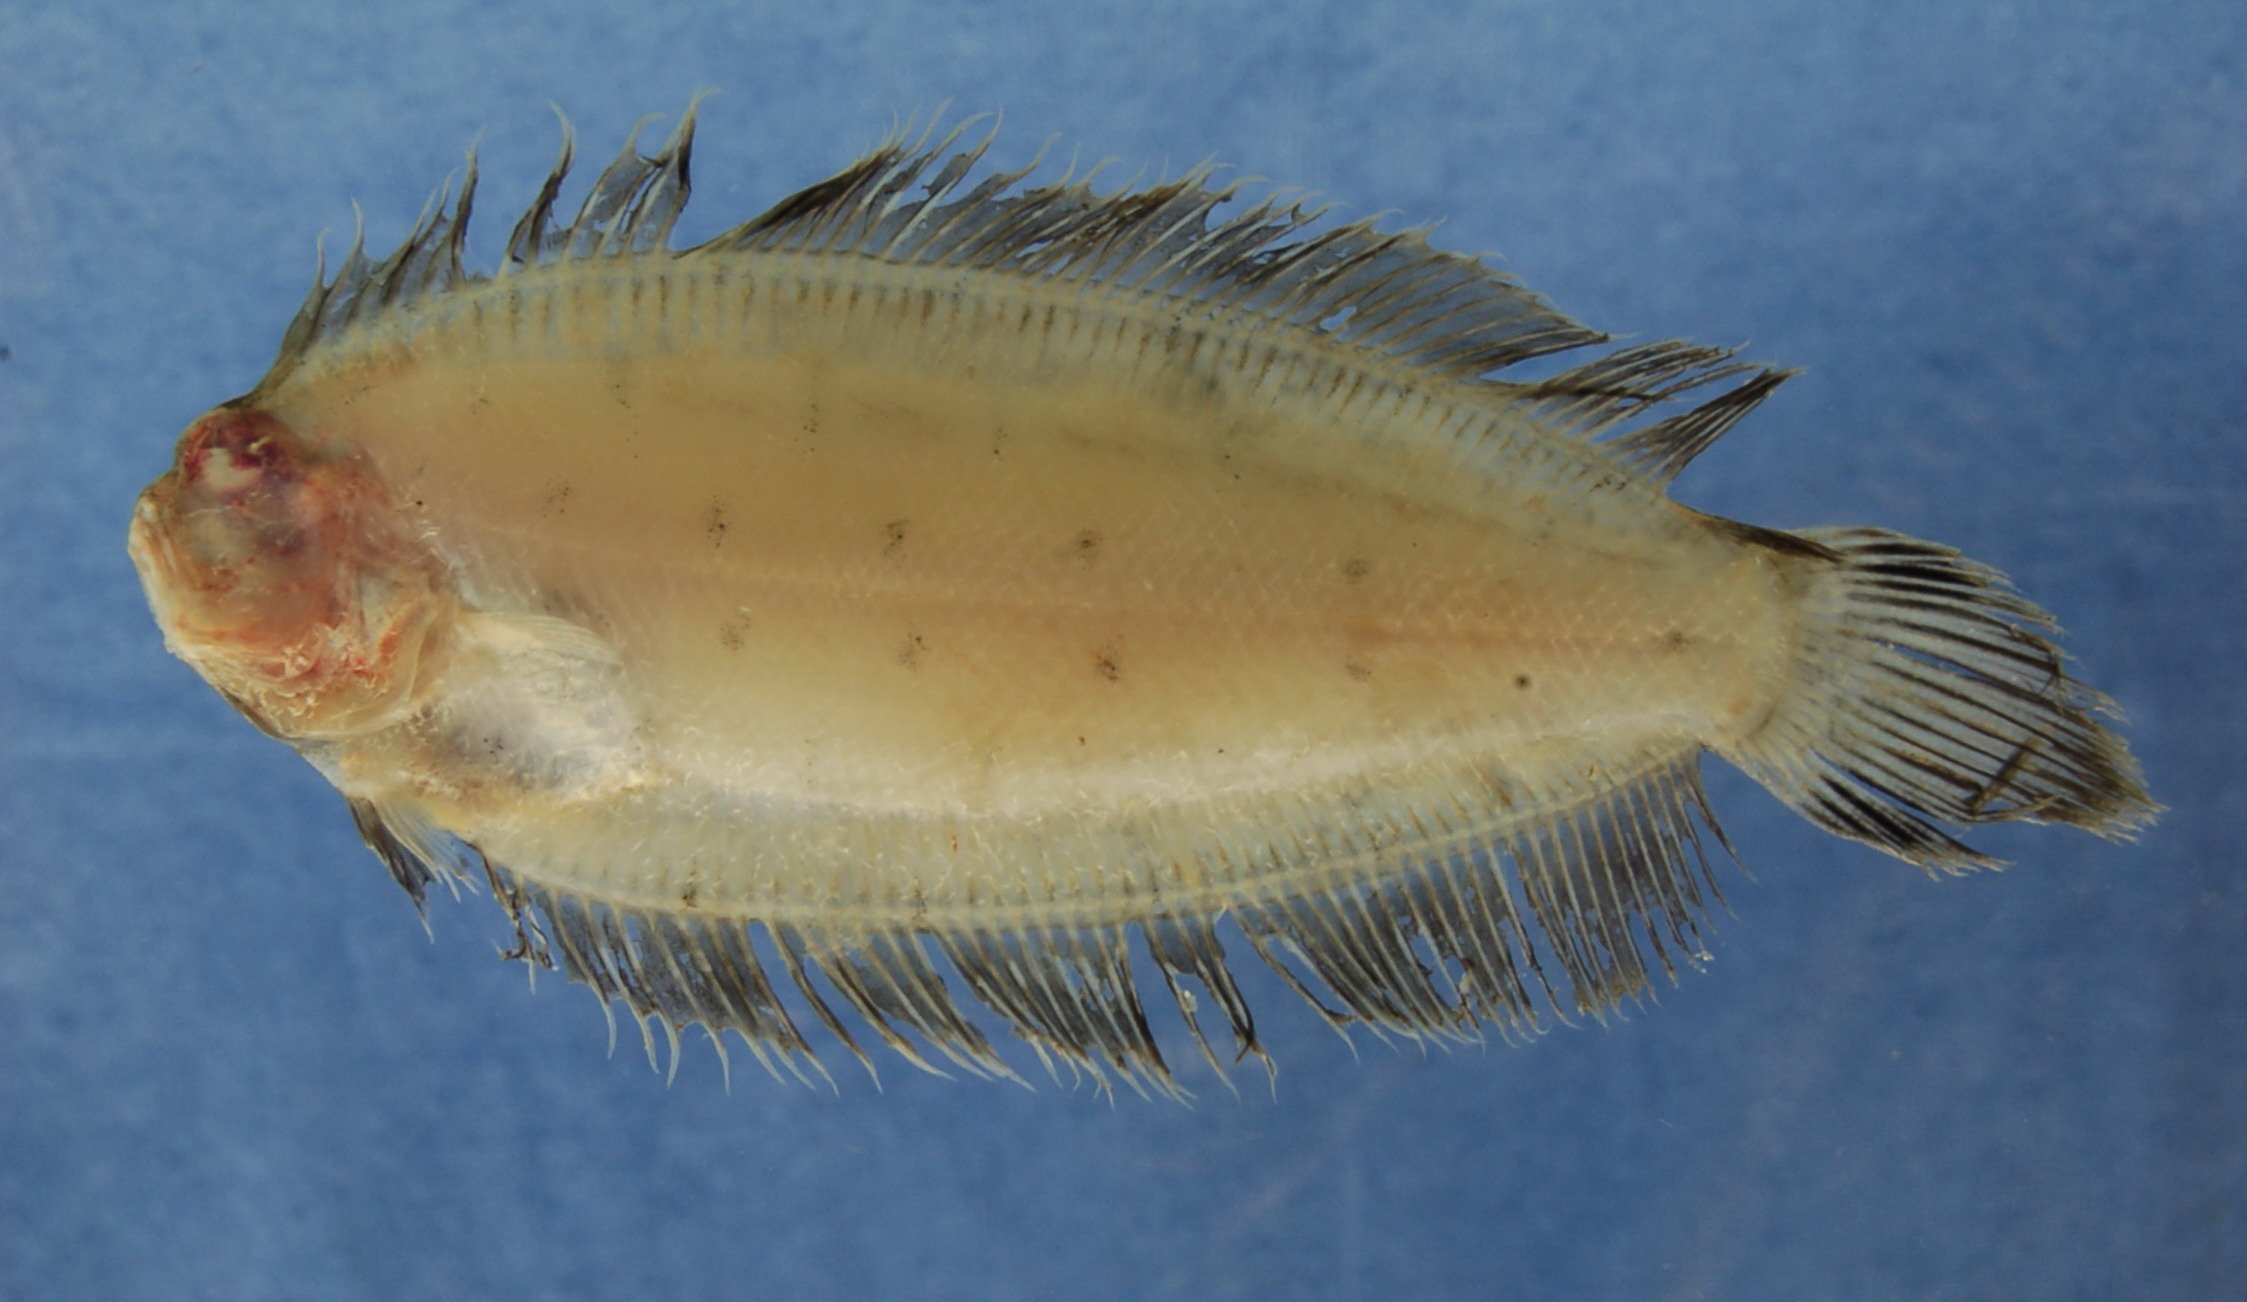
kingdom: Animalia
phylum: Chordata
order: Pleuronectiformes
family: Pleuronectidae
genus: Poecilopsetta
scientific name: Poecilopsetta natalensis
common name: African righteye flounder
